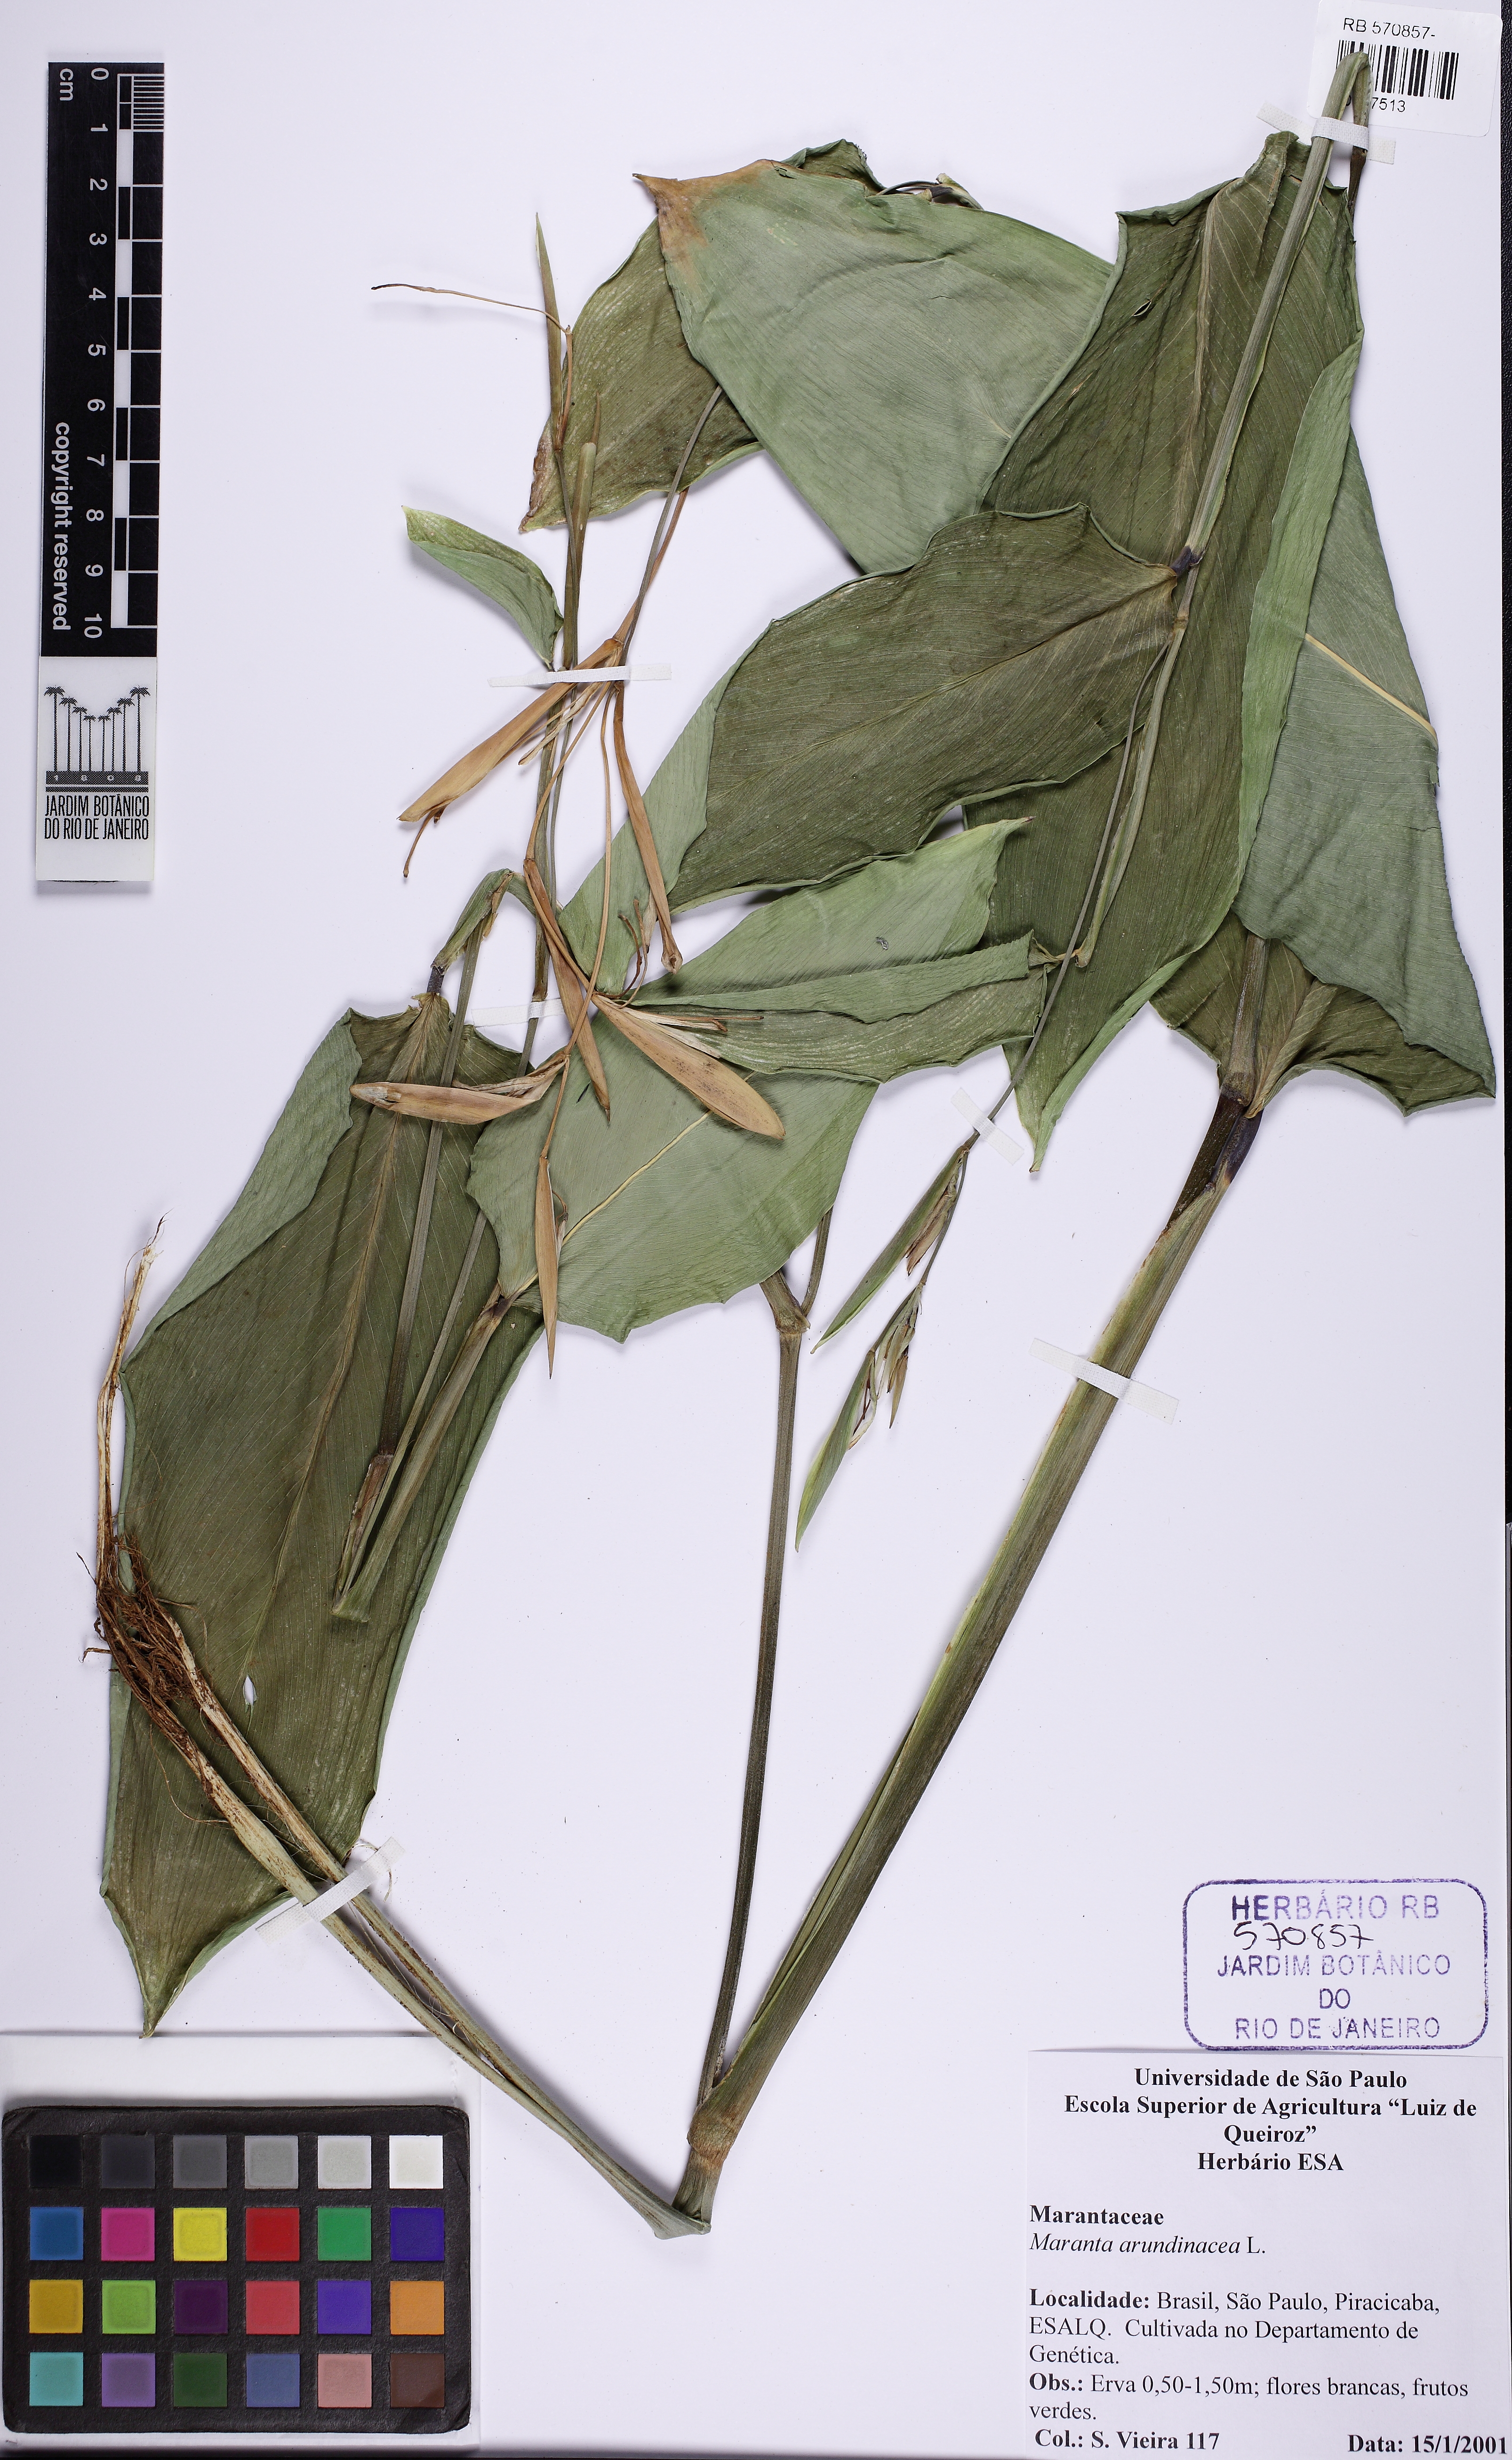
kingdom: Plantae
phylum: Tracheophyta
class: Liliopsida
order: Zingiberales
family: Marantaceae
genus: Maranta
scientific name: Maranta arundinacea
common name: Arrowroot
